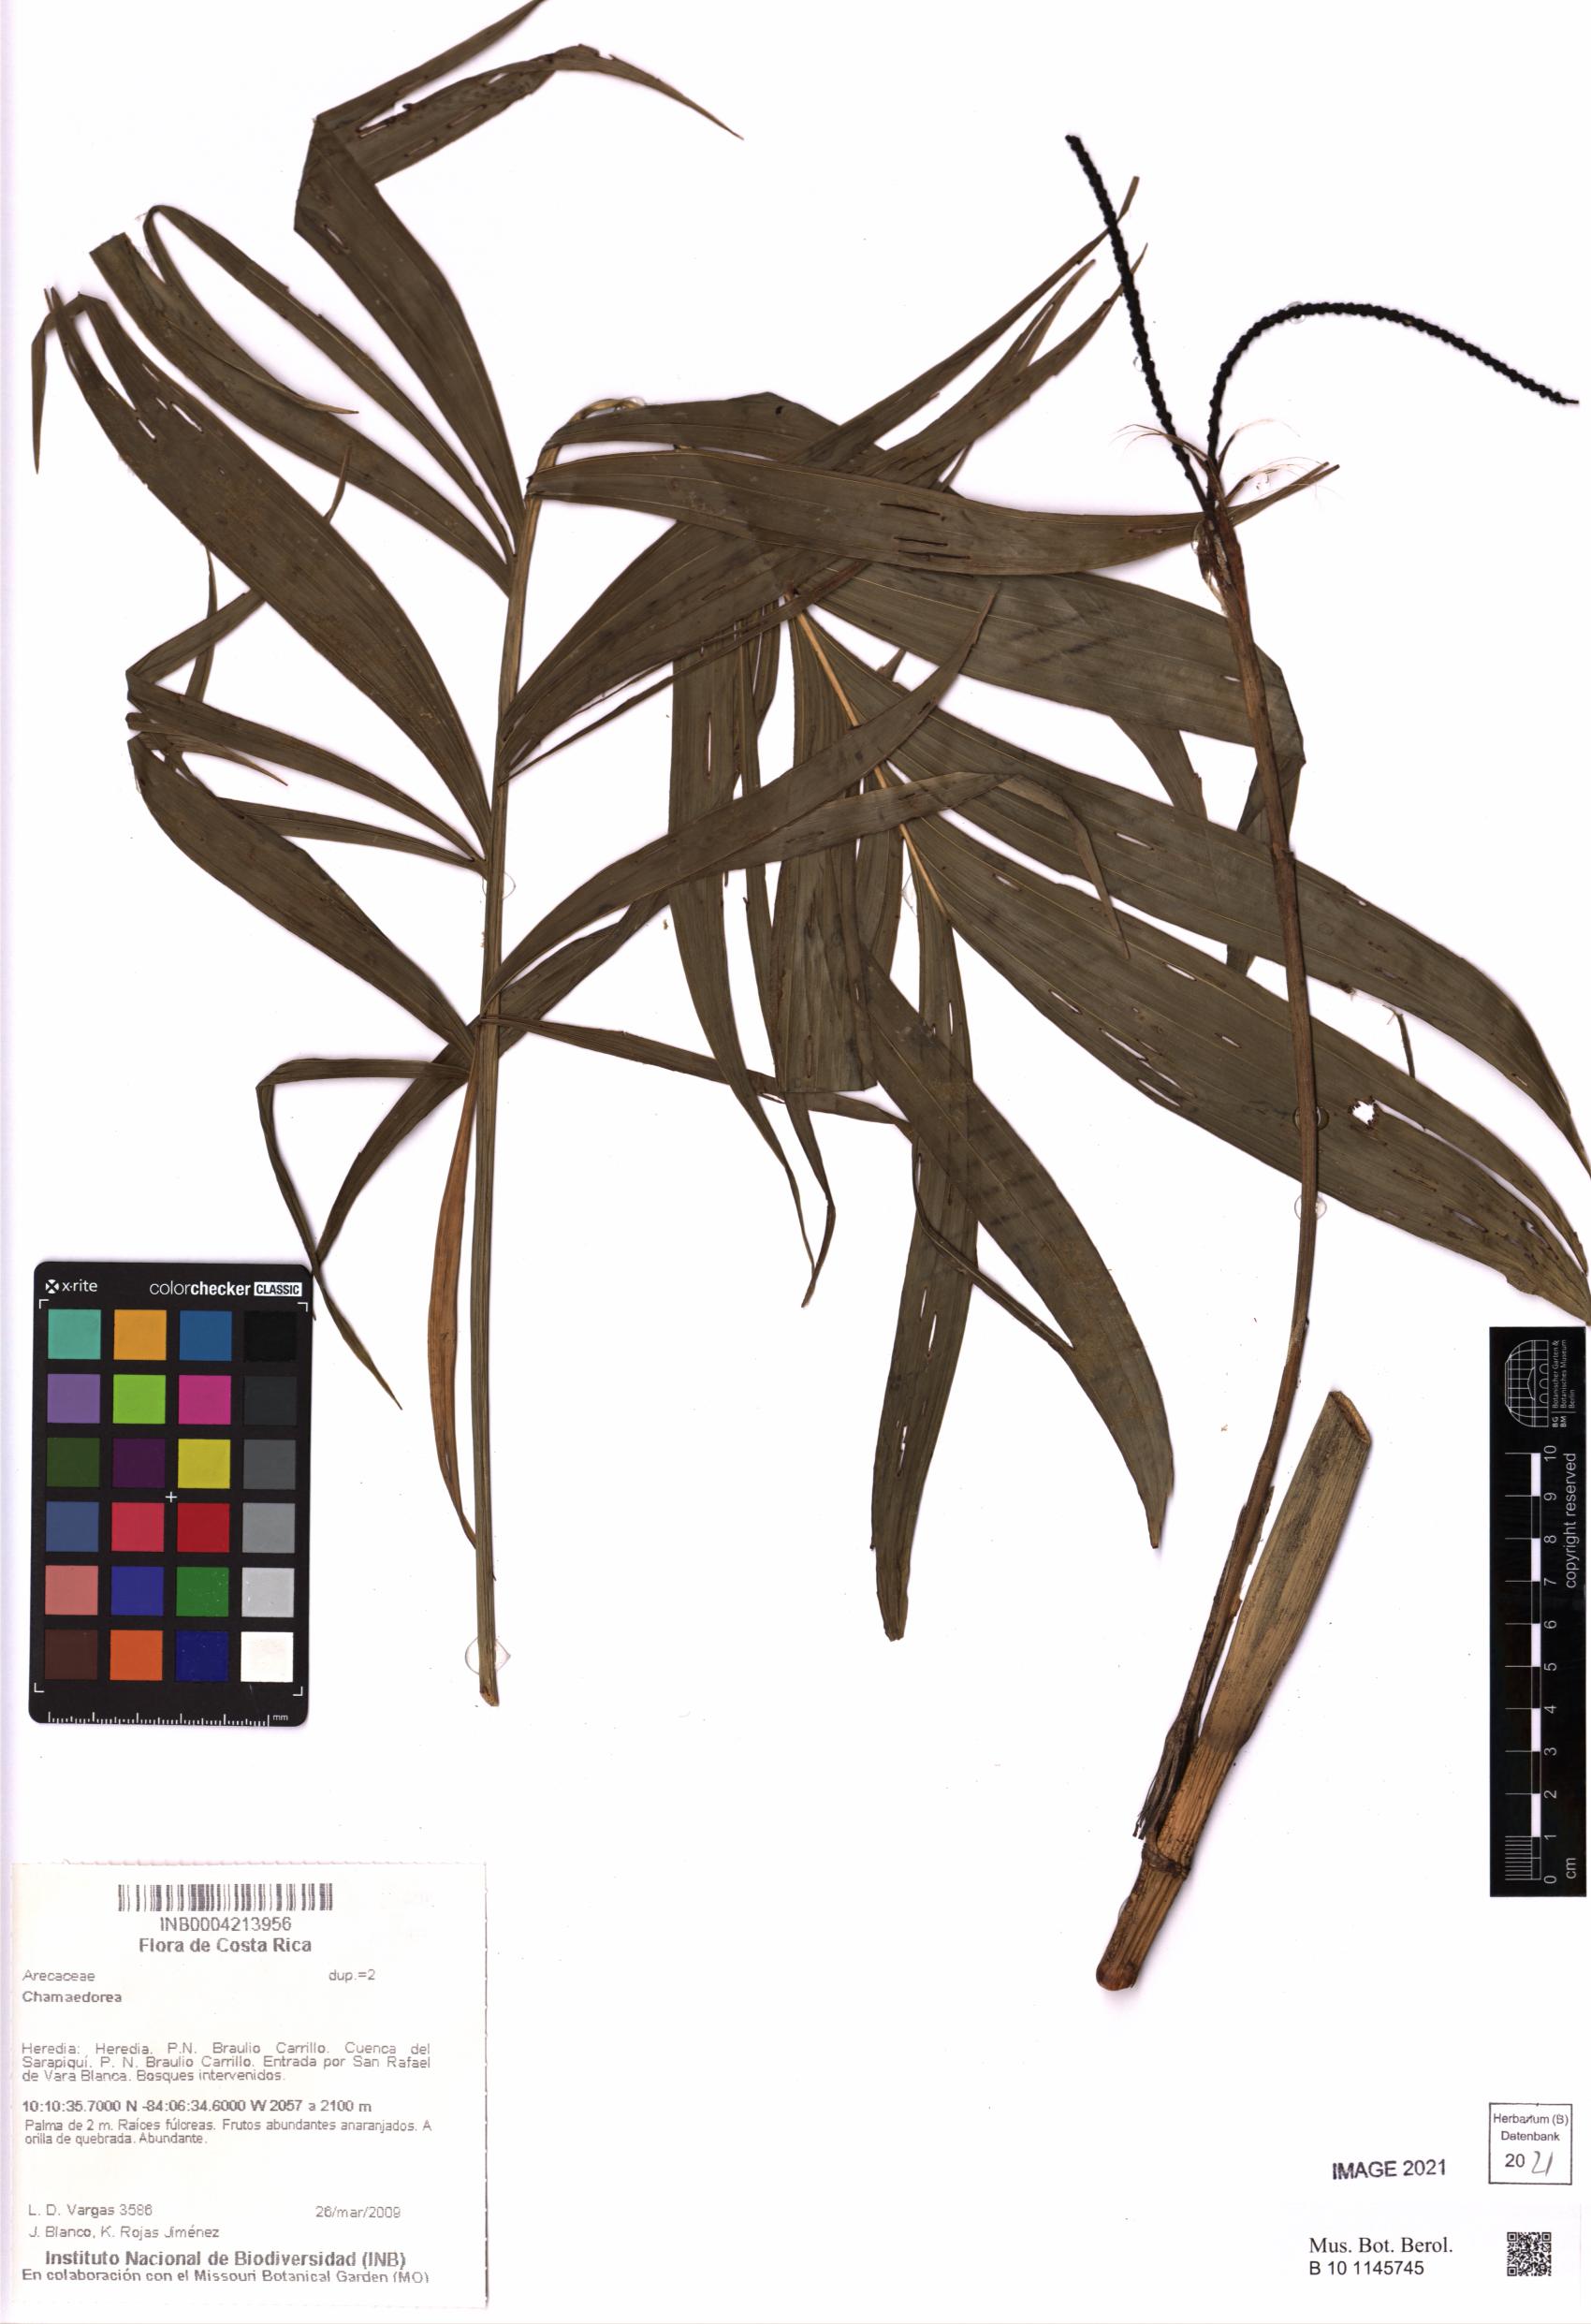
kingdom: Plantae
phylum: Tracheophyta
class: Liliopsida
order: Arecales
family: Arecaceae
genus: Chamaedorea
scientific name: Chamaedorea
